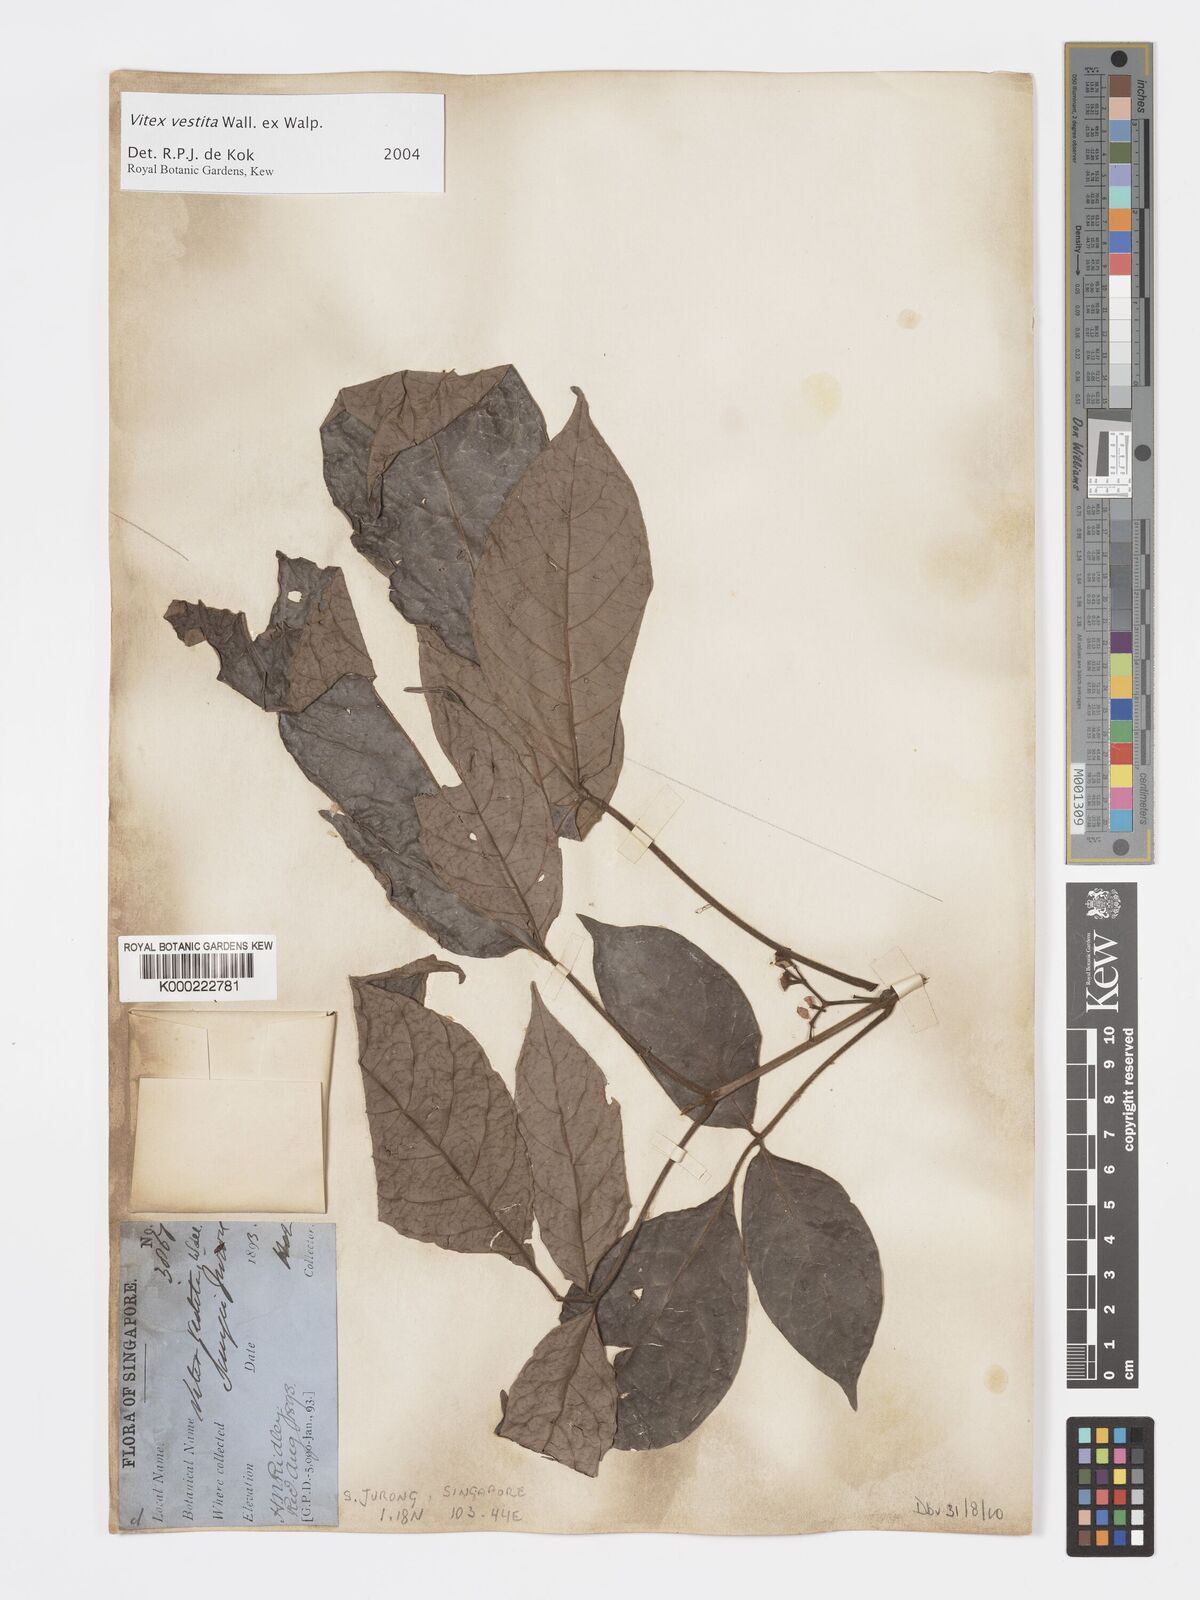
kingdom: Plantae
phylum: Tracheophyta
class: Magnoliopsida
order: Lamiales
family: Lamiaceae
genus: Vitex
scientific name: Vitex vestita
